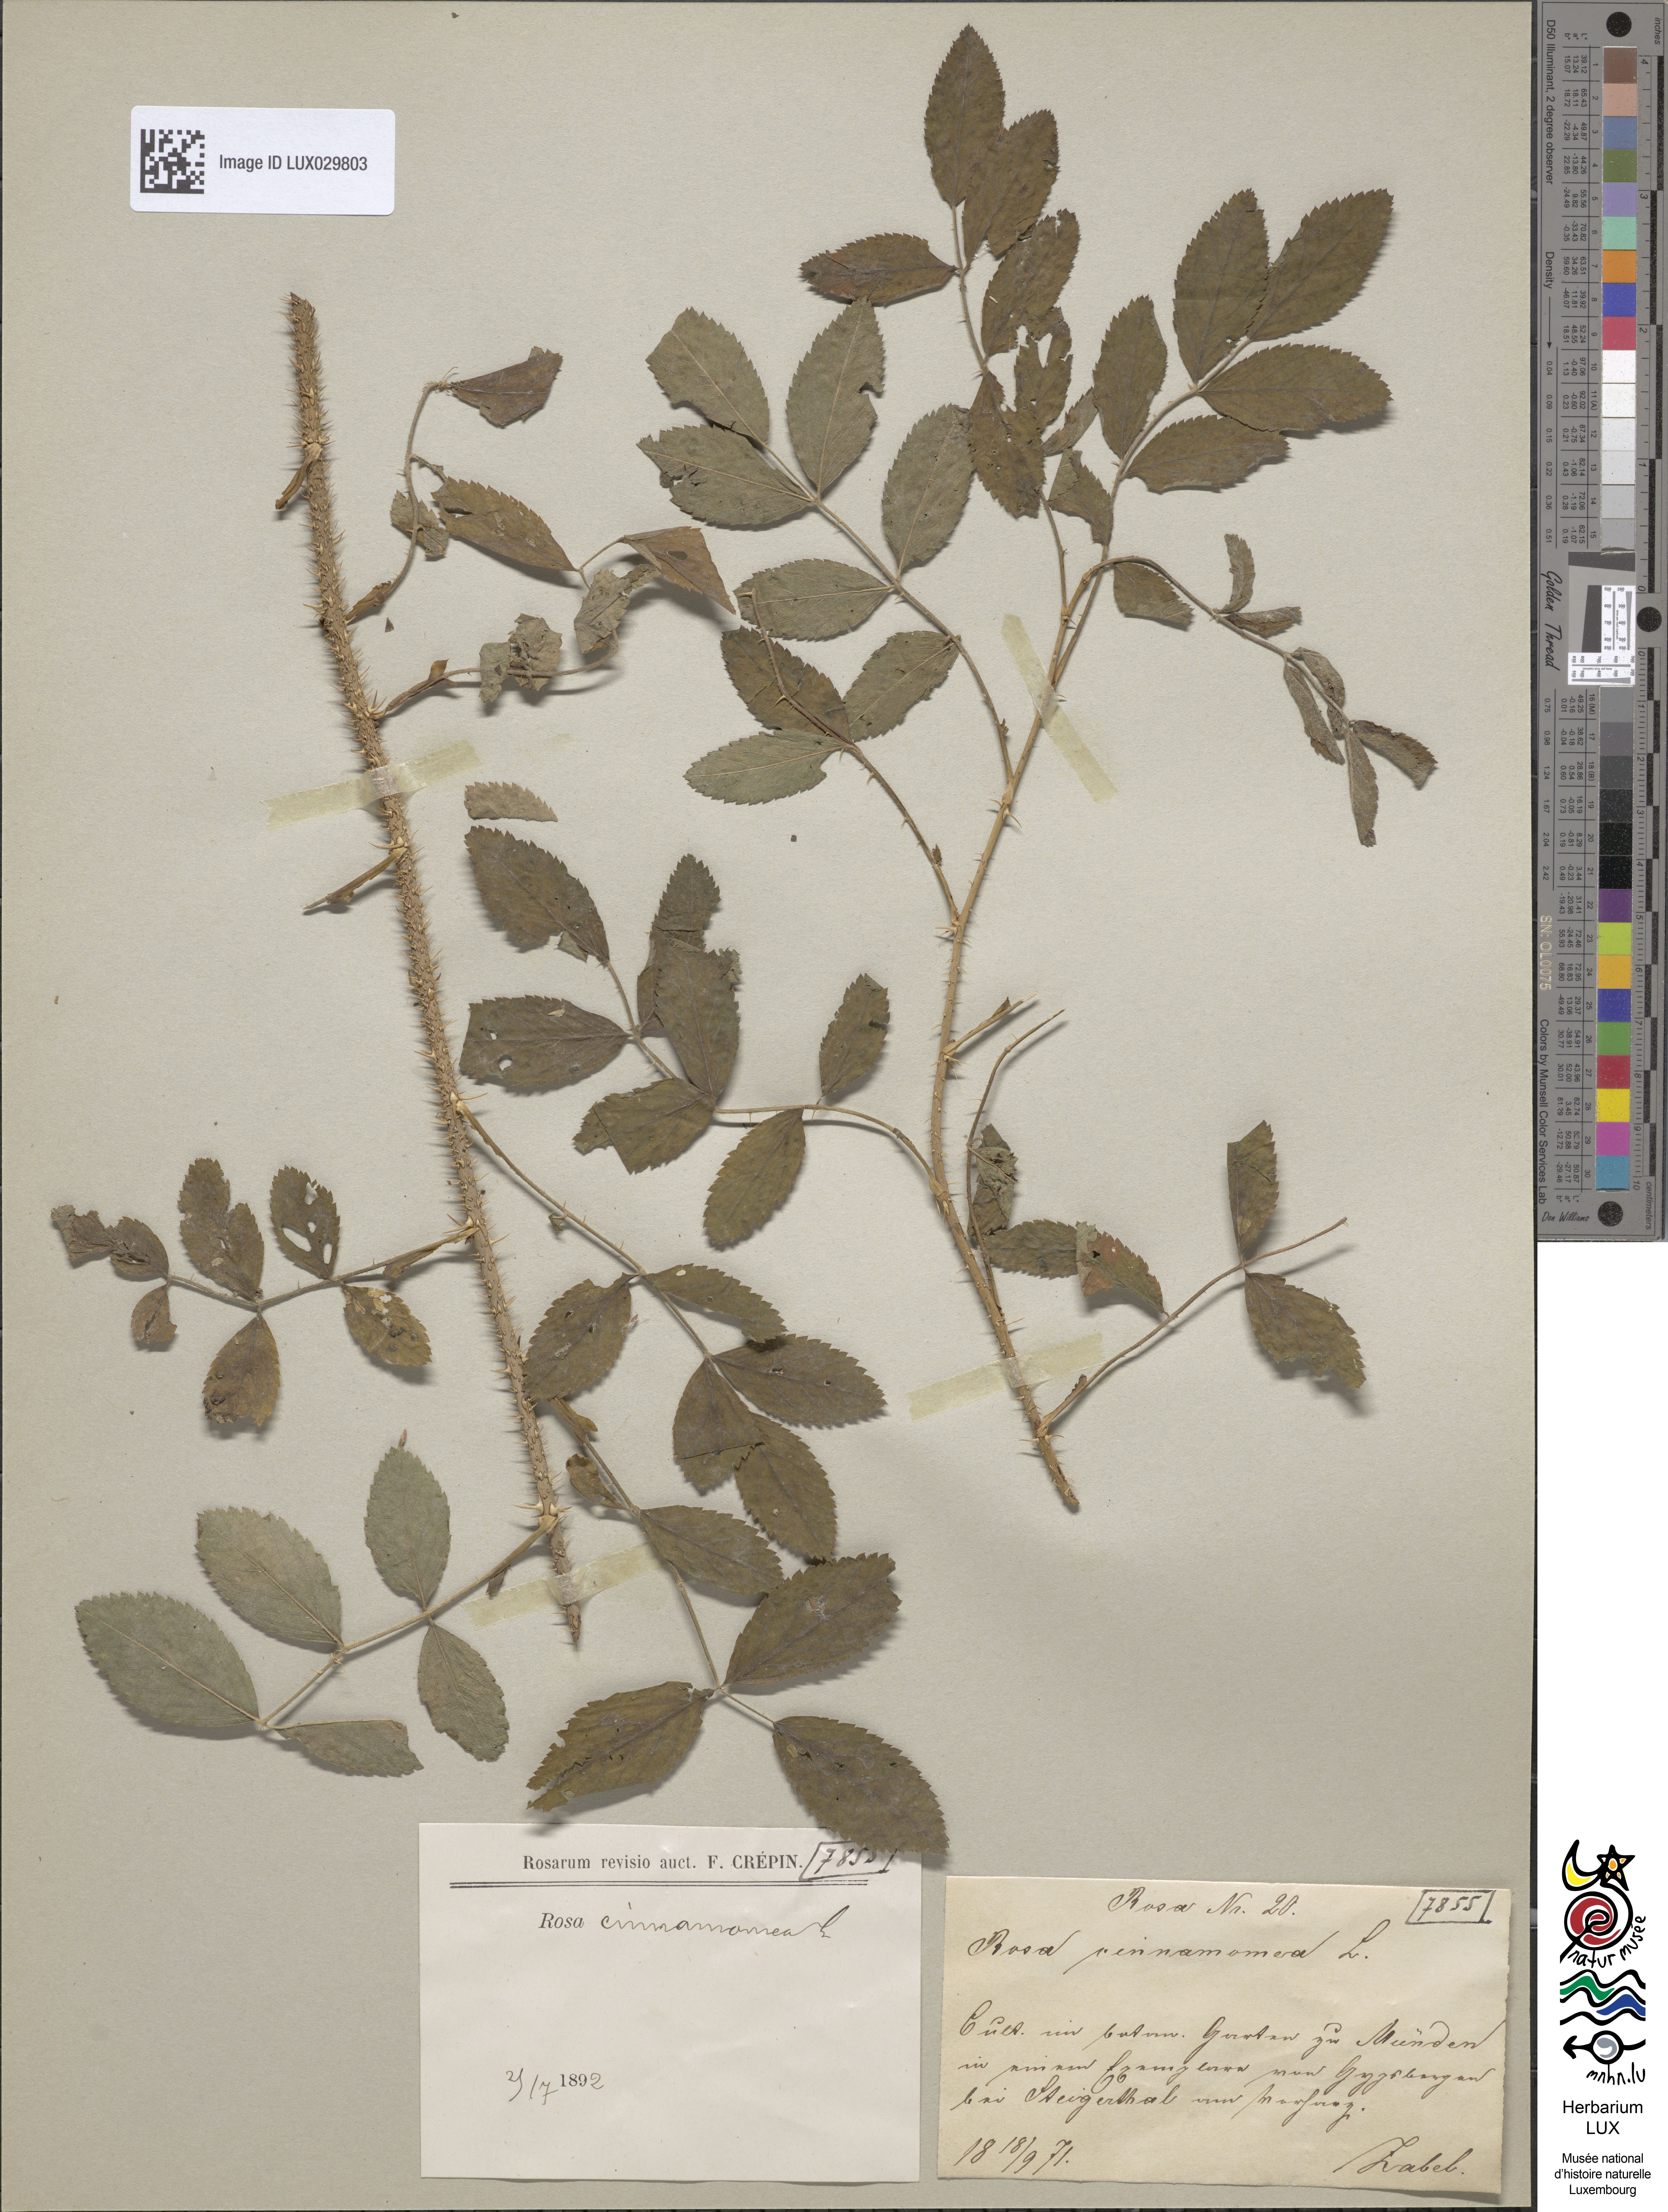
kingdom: Plantae
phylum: Tracheophyta
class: Magnoliopsida
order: Rosales
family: Rosaceae
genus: Rosa
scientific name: Rosa majalis
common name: Cinnamon rose
